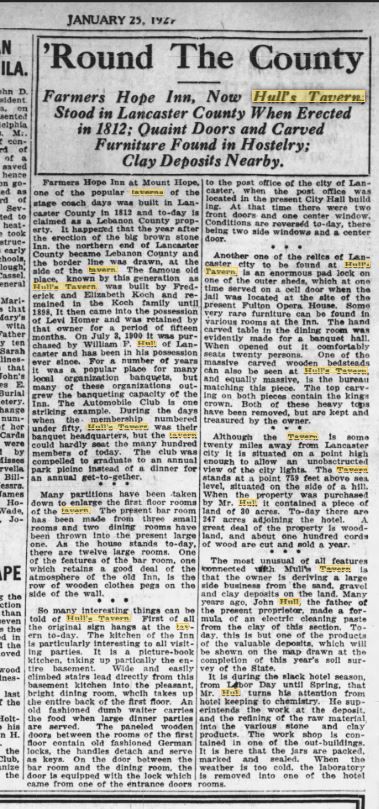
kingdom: Plantae
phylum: Tracheophyta
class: Pinopsida
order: Pinales
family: Cupressaceae
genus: Juniperus
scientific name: Juniperus communis
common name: juniper
